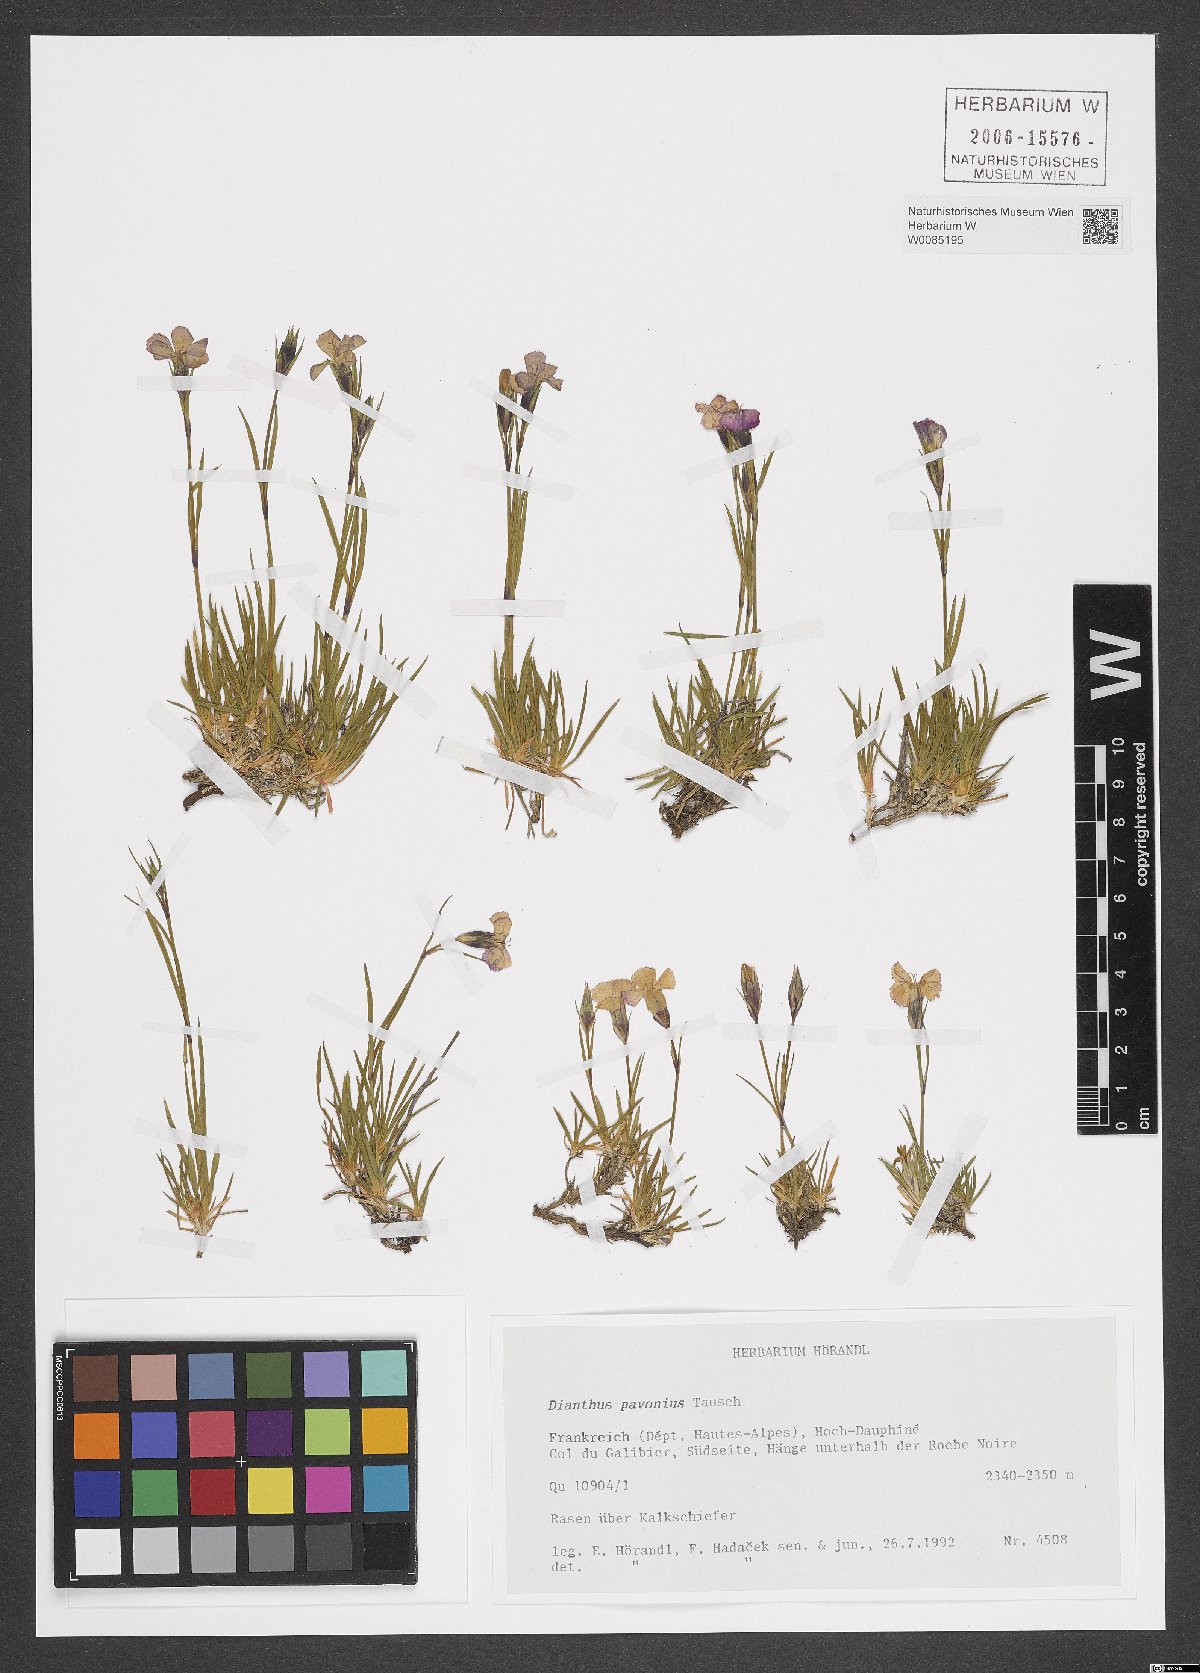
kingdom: Plantae
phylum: Tracheophyta
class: Magnoliopsida
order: Caryophyllales
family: Caryophyllaceae
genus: Dianthus
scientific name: Dianthus pavonius
